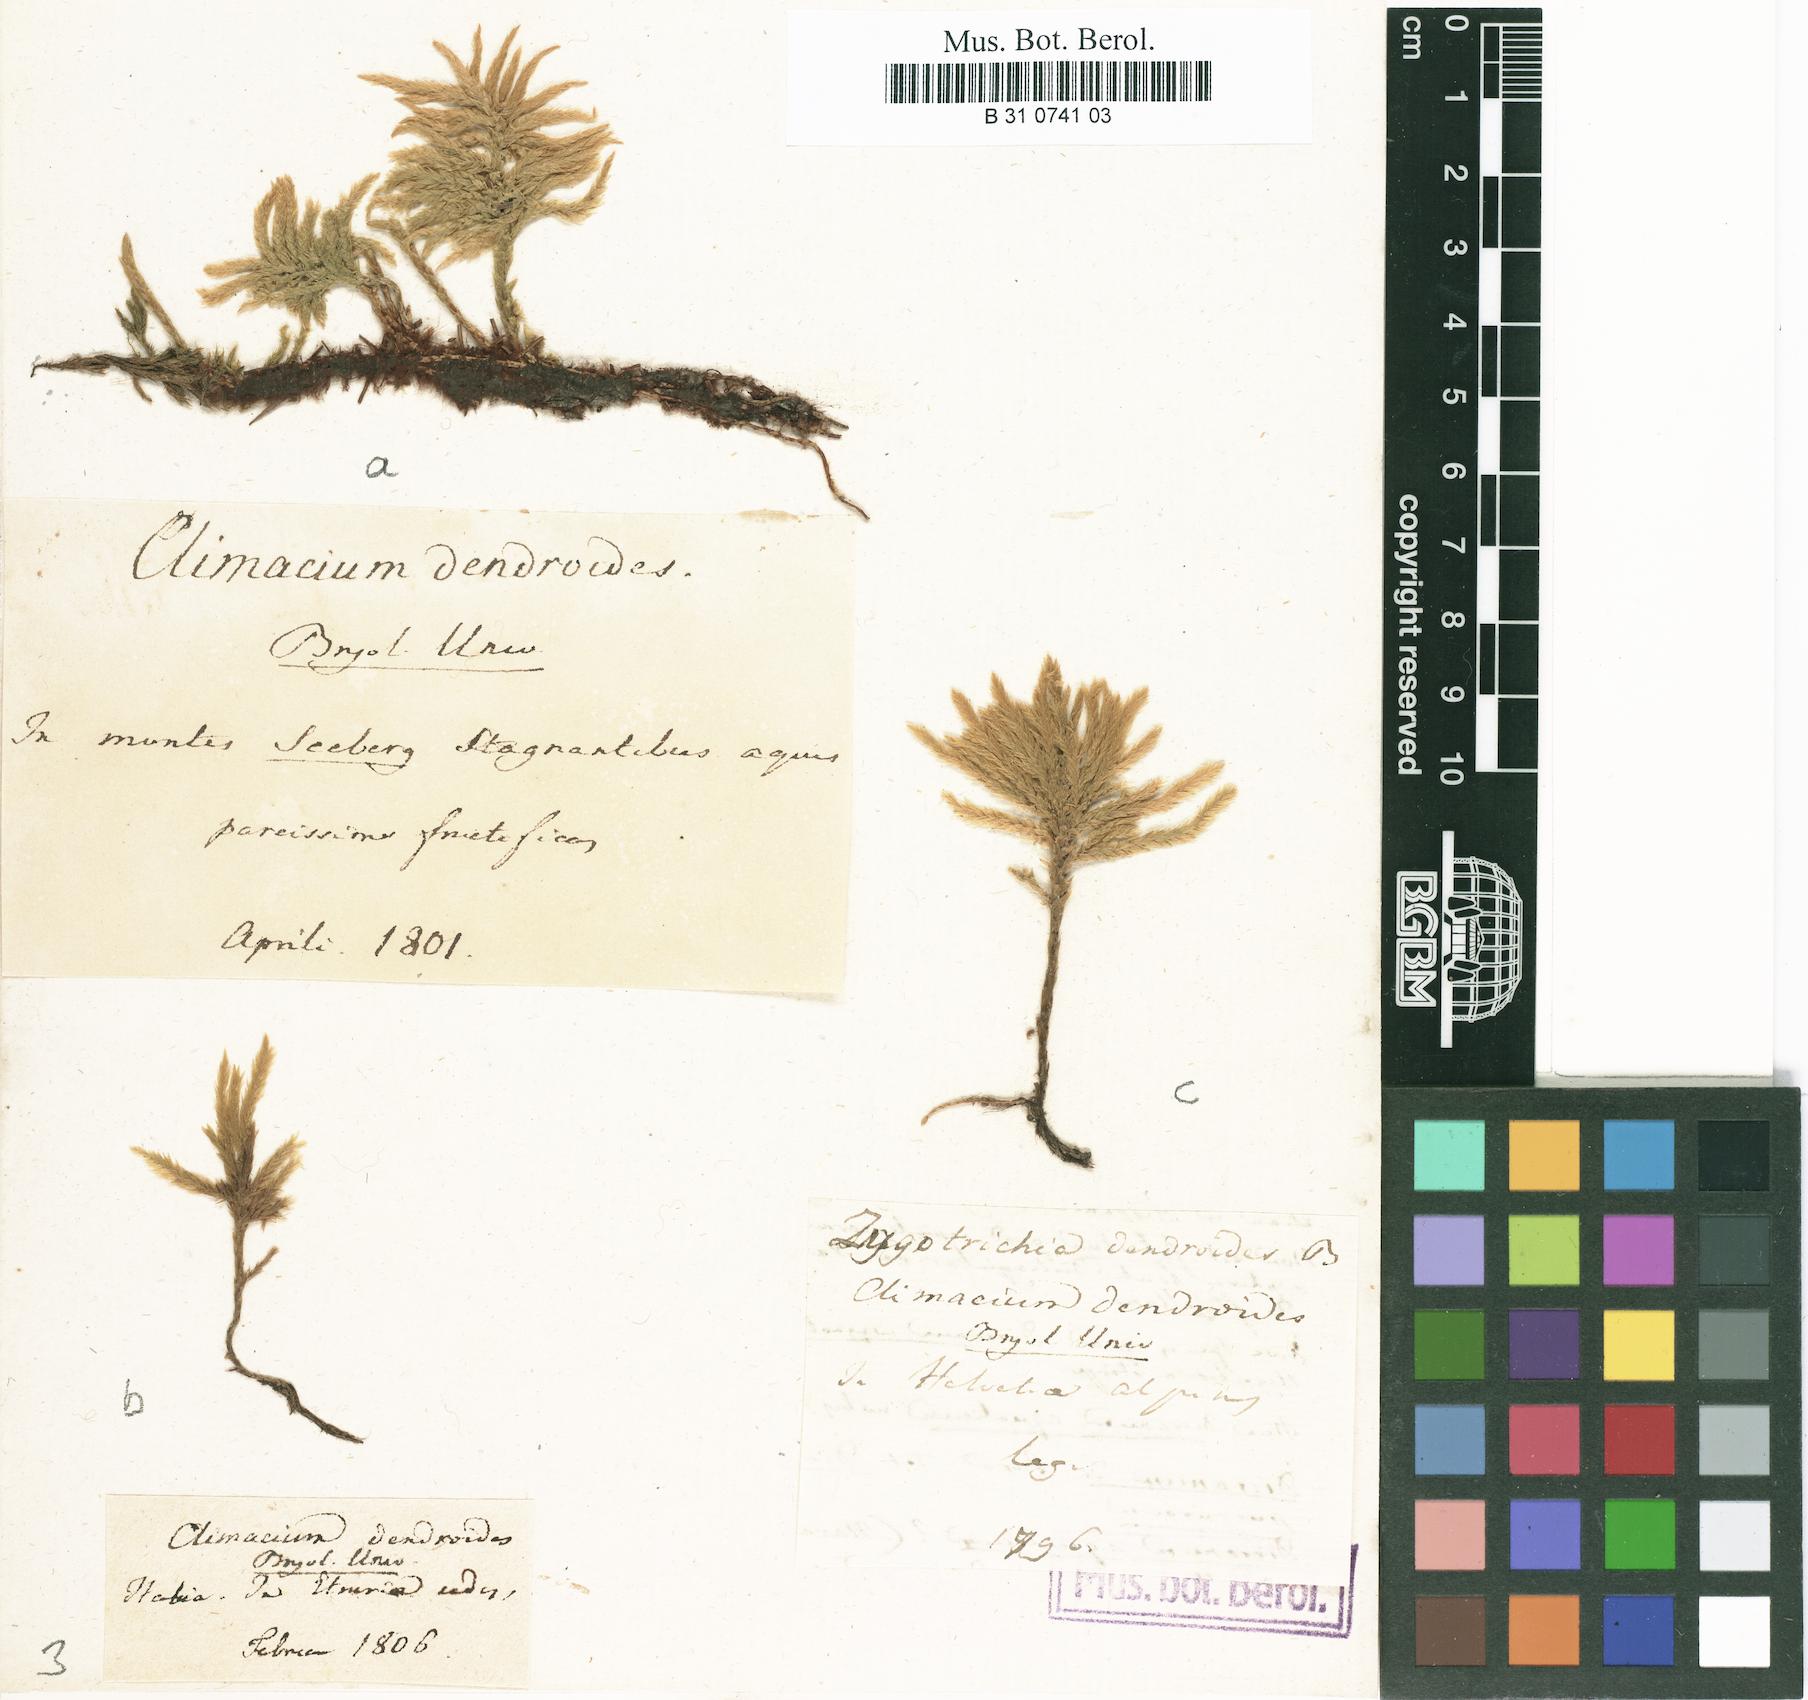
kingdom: Plantae
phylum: Bryophyta
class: Bryopsida
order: Hypnales
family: Climaciaceae
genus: Climacium
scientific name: Climacium dendroides
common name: Northern tree moss
